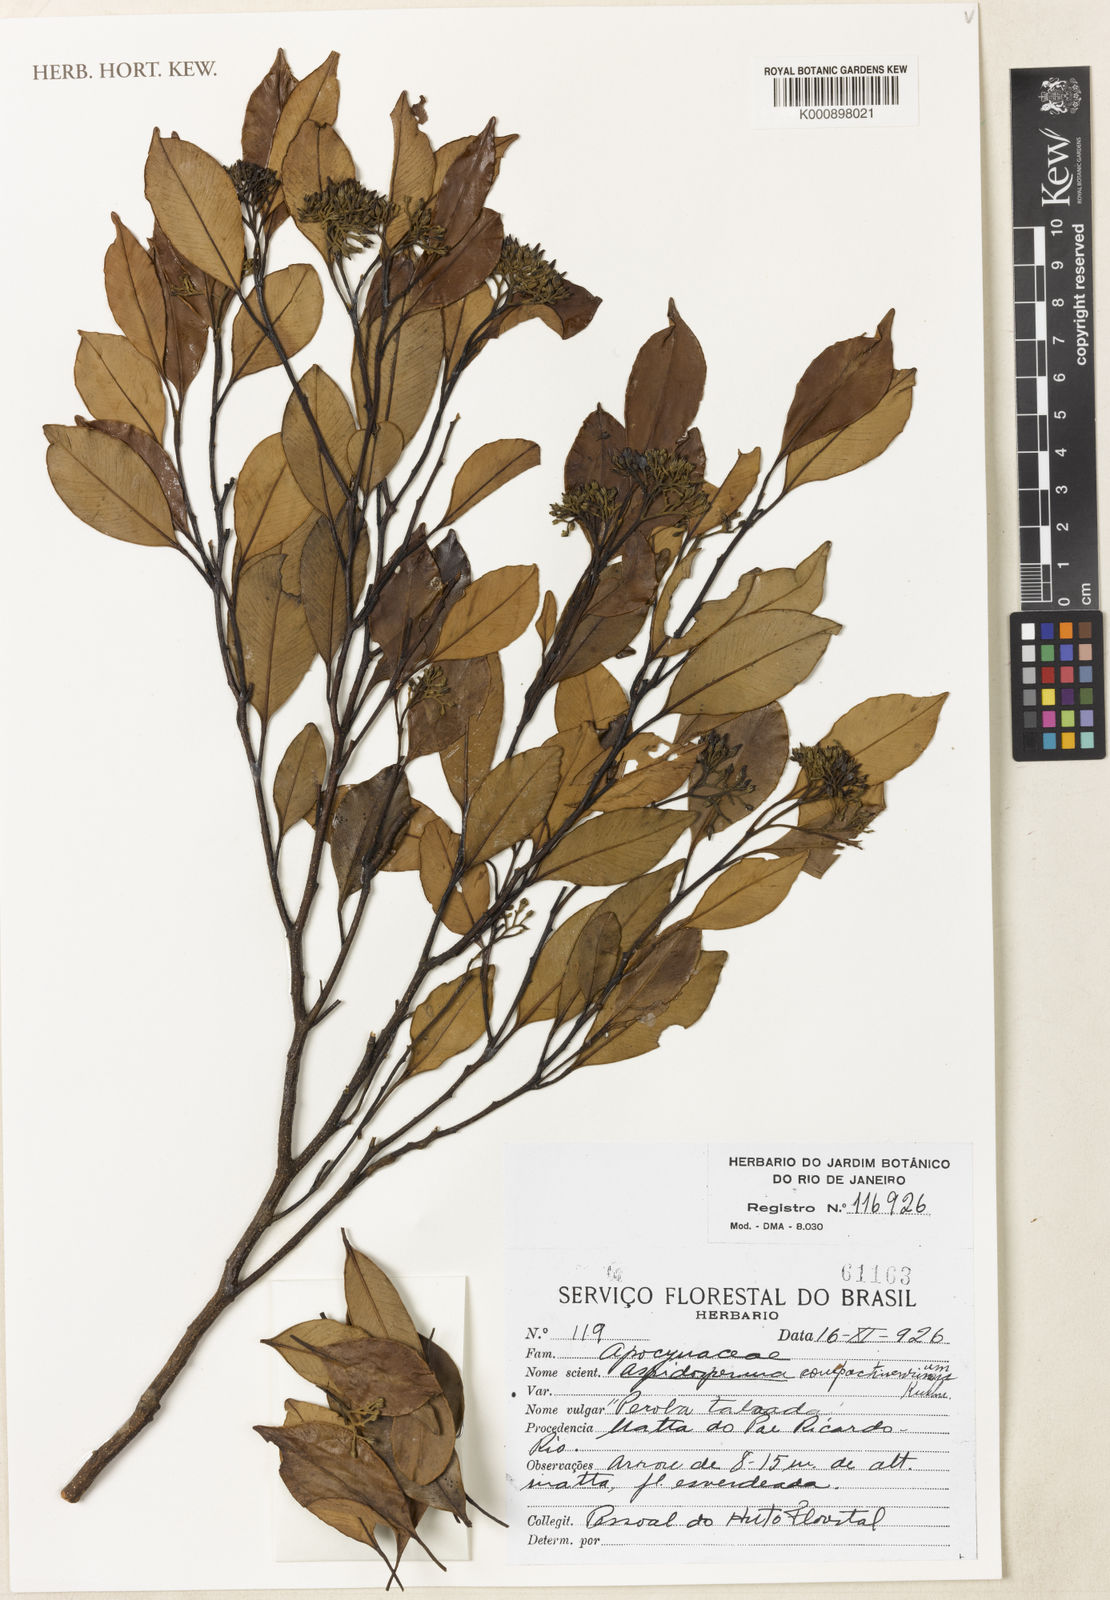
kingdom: Plantae
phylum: Tracheophyta
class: Magnoliopsida
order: Gentianales
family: Apocynaceae
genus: Aspidosperma
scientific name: Aspidosperma eburneum
